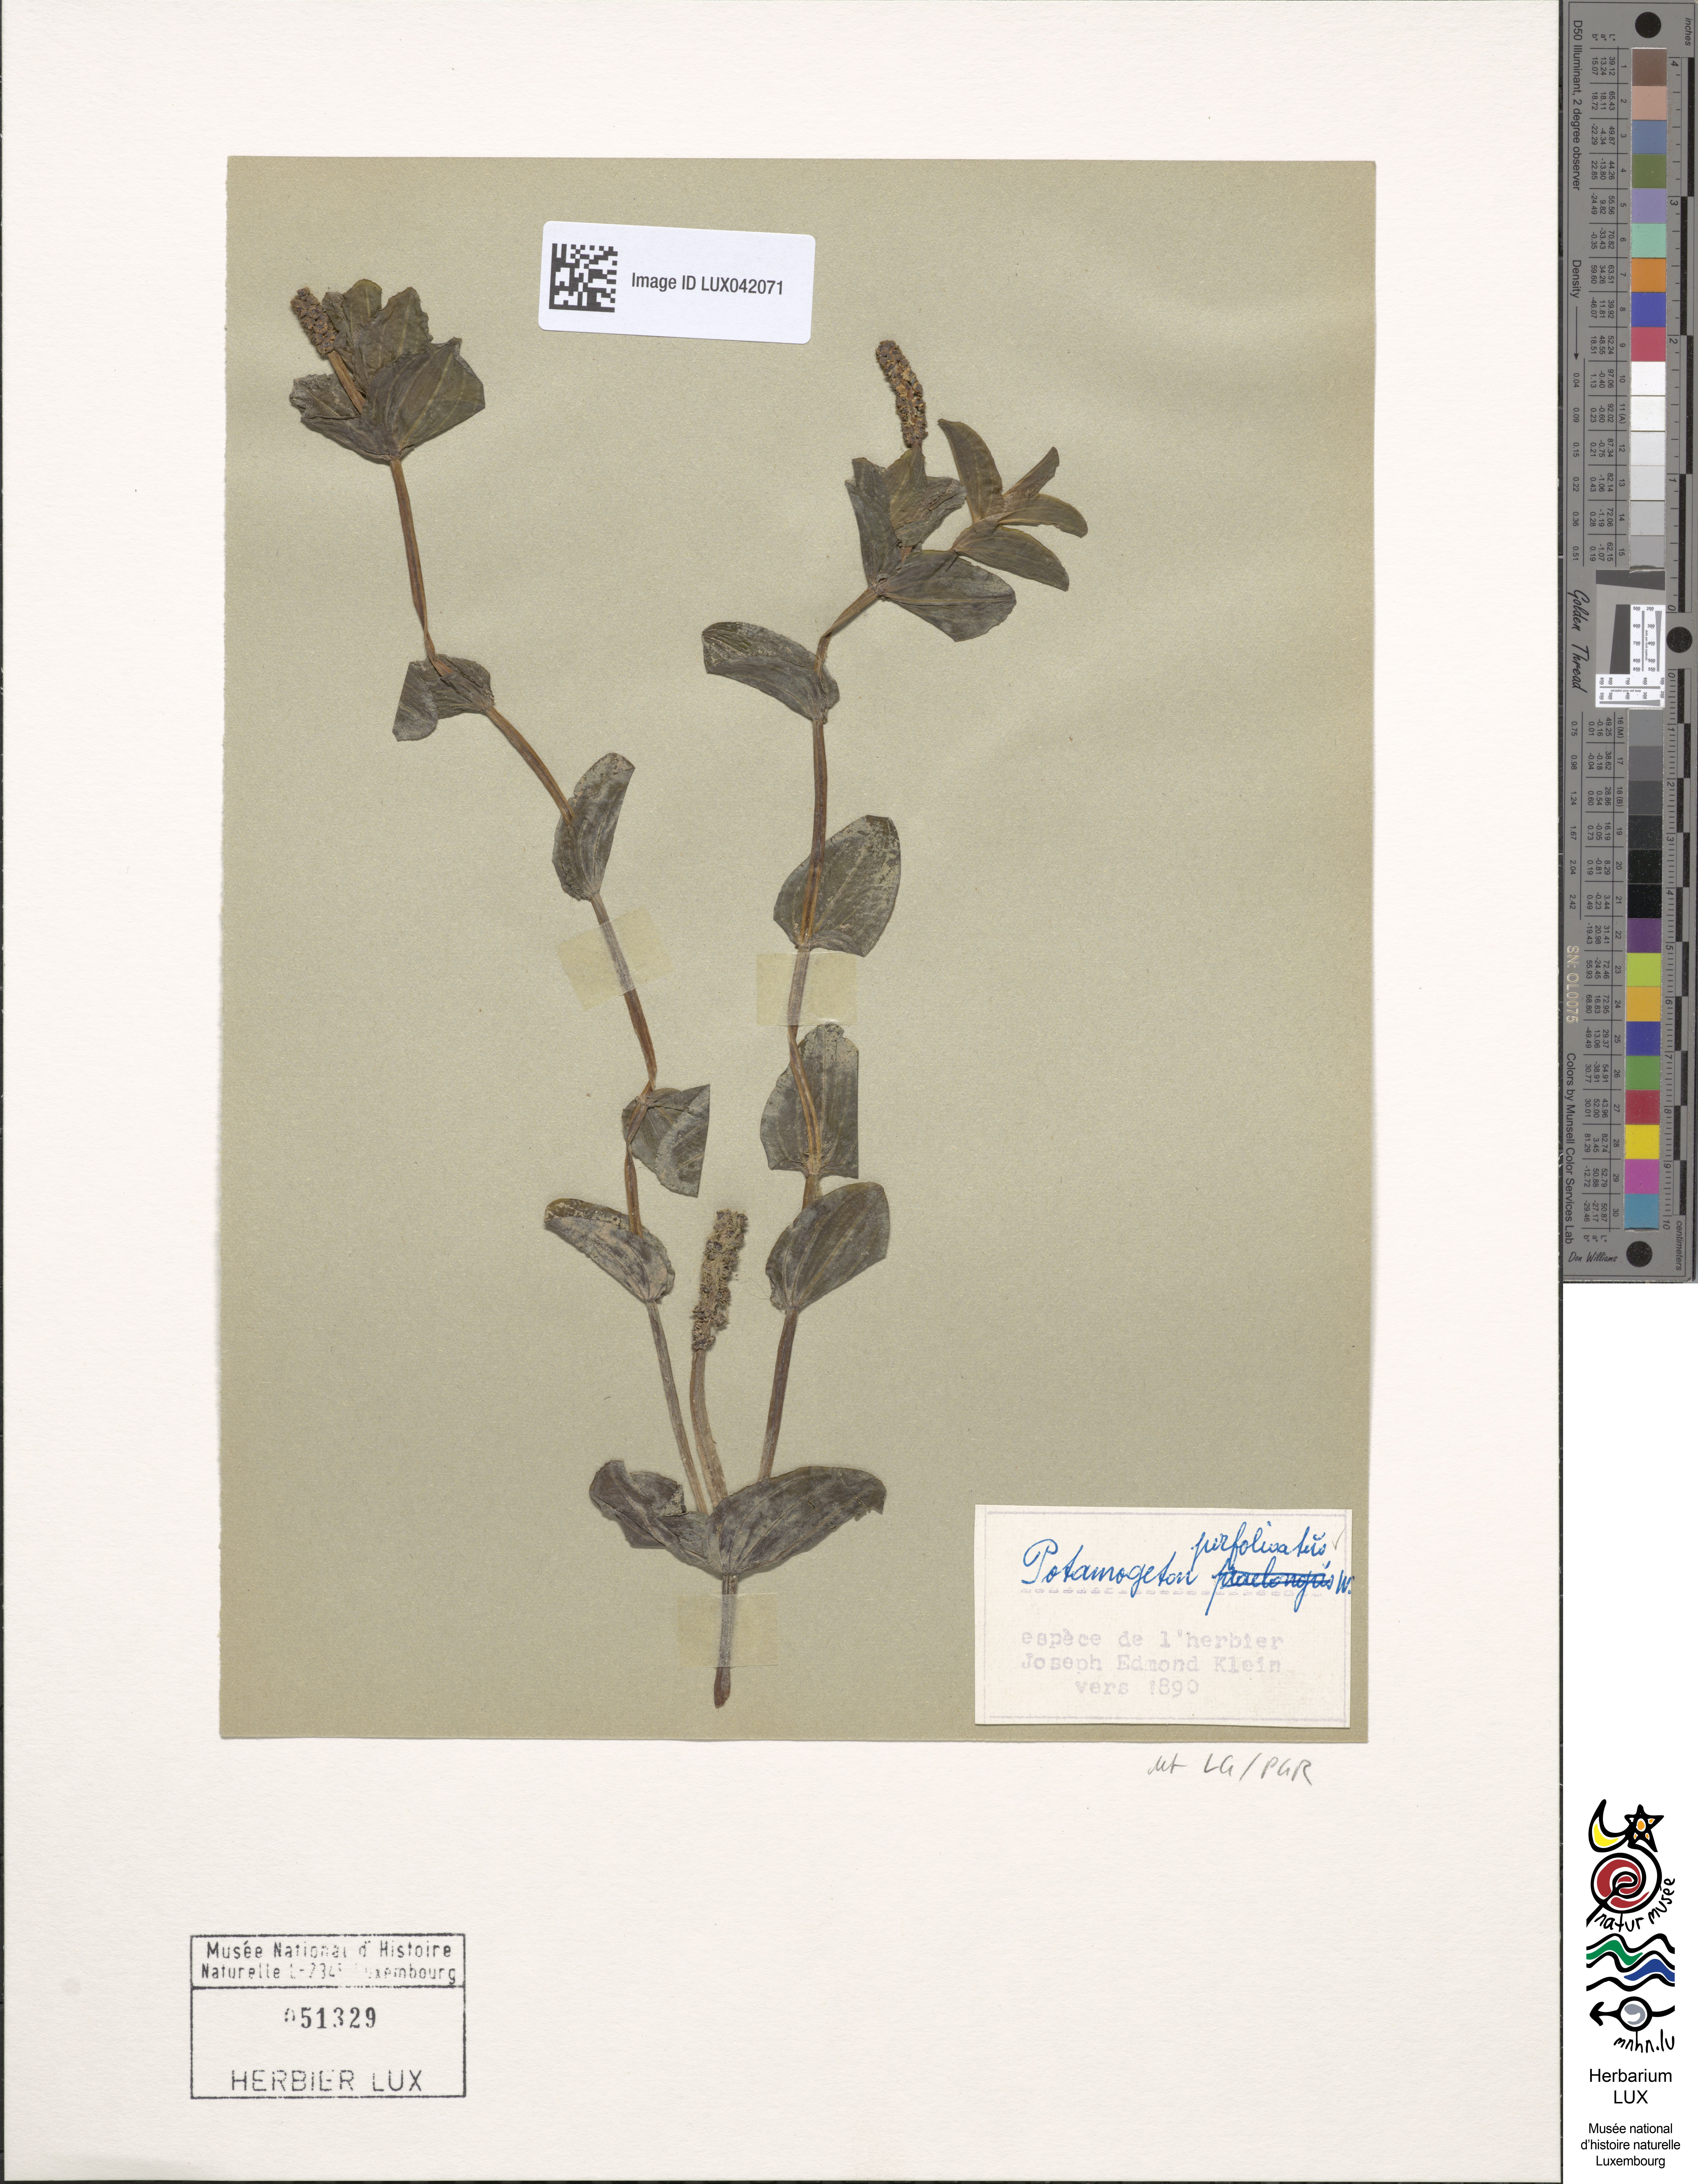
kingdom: Plantae
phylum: Tracheophyta
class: Liliopsida
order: Alismatales
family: Potamogetonaceae
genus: Potamogeton
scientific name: Potamogeton perfoliatus
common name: Perfoliate pondweed
